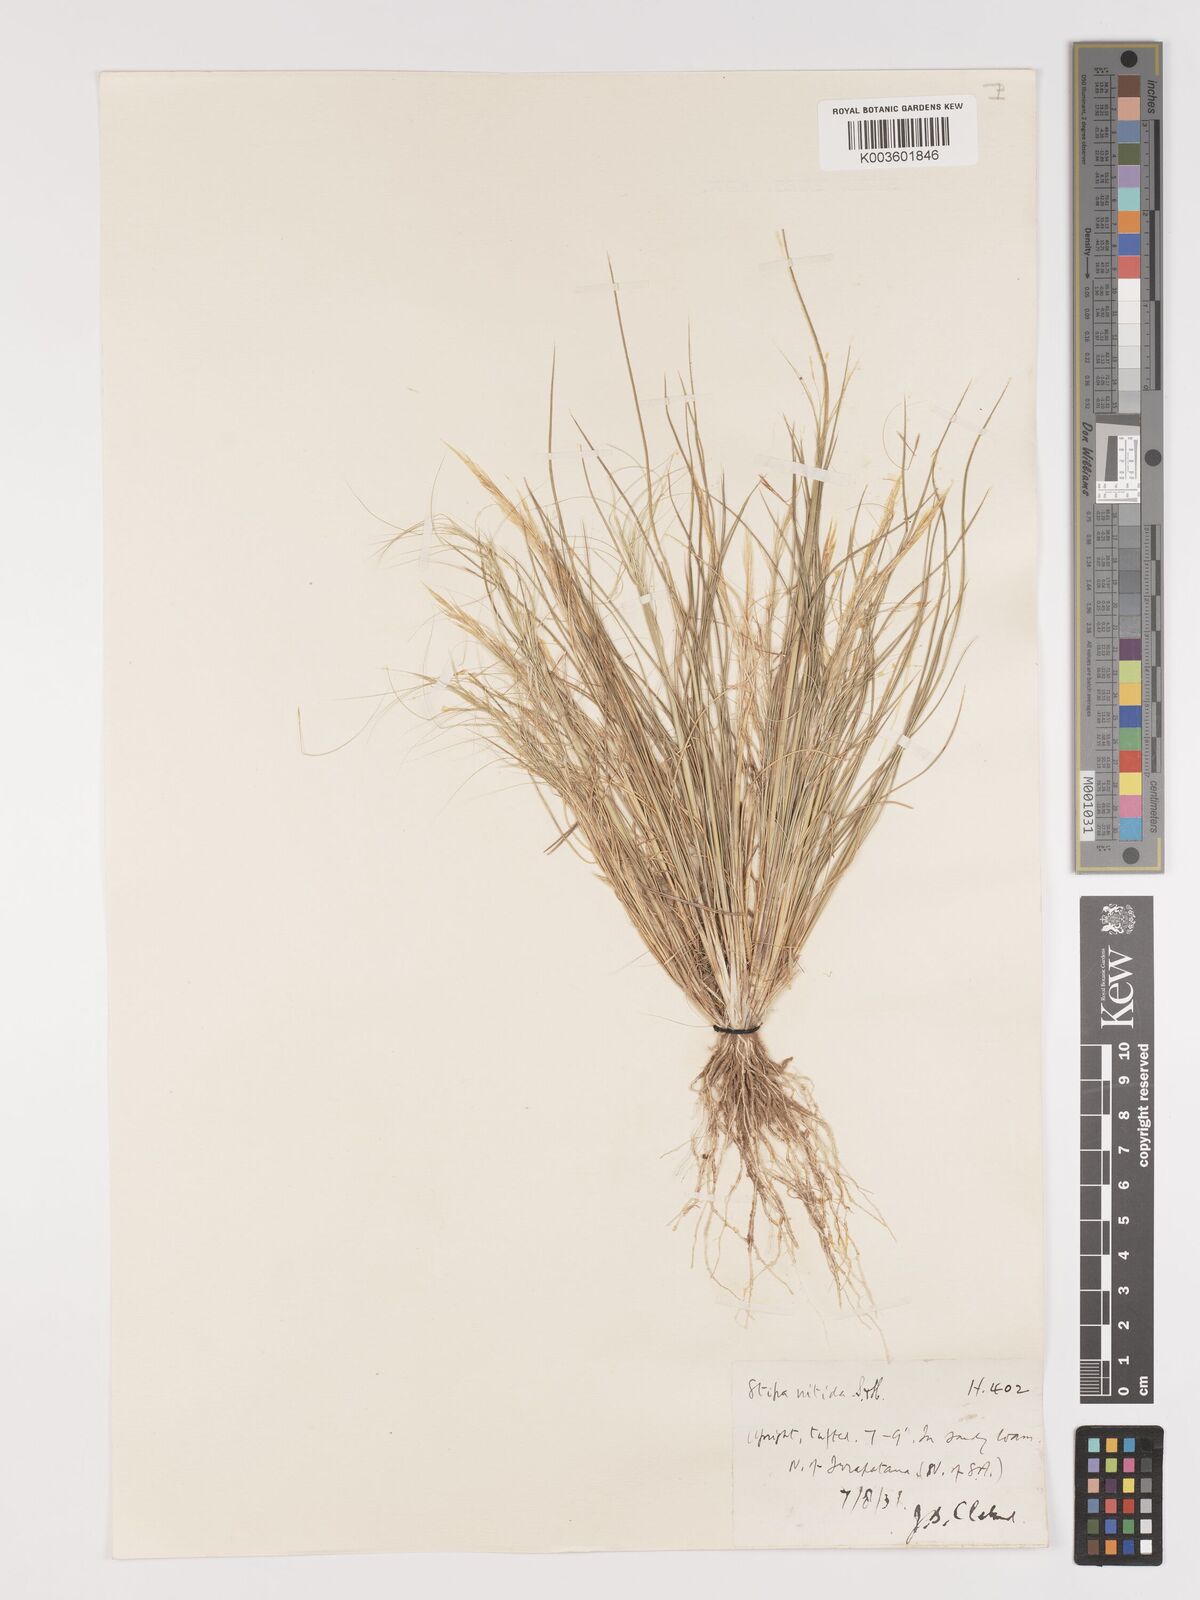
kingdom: Plantae
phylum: Tracheophyta
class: Liliopsida
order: Poales
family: Poaceae
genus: Austrostipa
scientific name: Austrostipa nitida
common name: Balcarra grass
